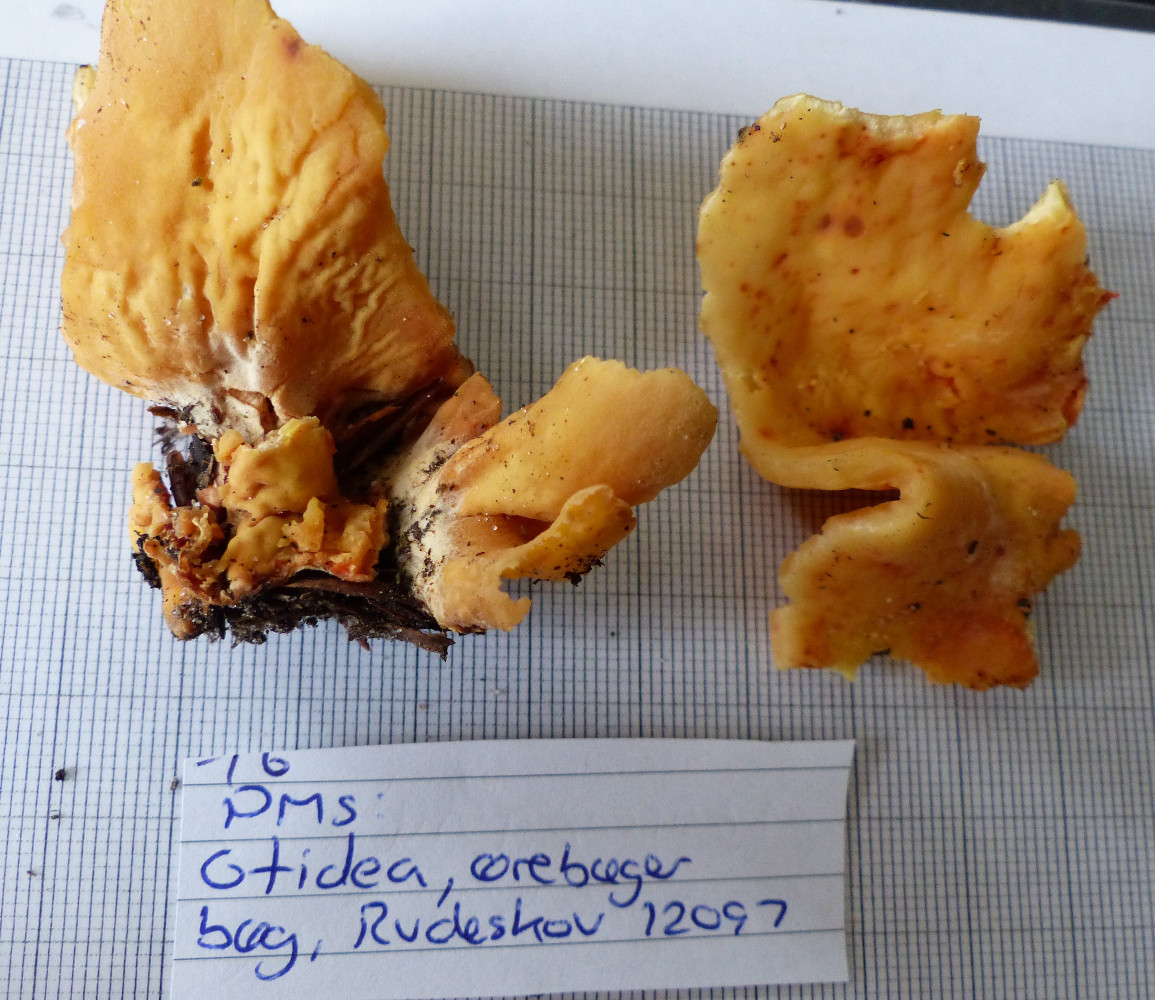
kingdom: Fungi
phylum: Ascomycota
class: Pezizomycetes
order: Pezizales
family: Otideaceae
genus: Otidea
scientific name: Otidea onotica
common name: æsel-ørebæger
